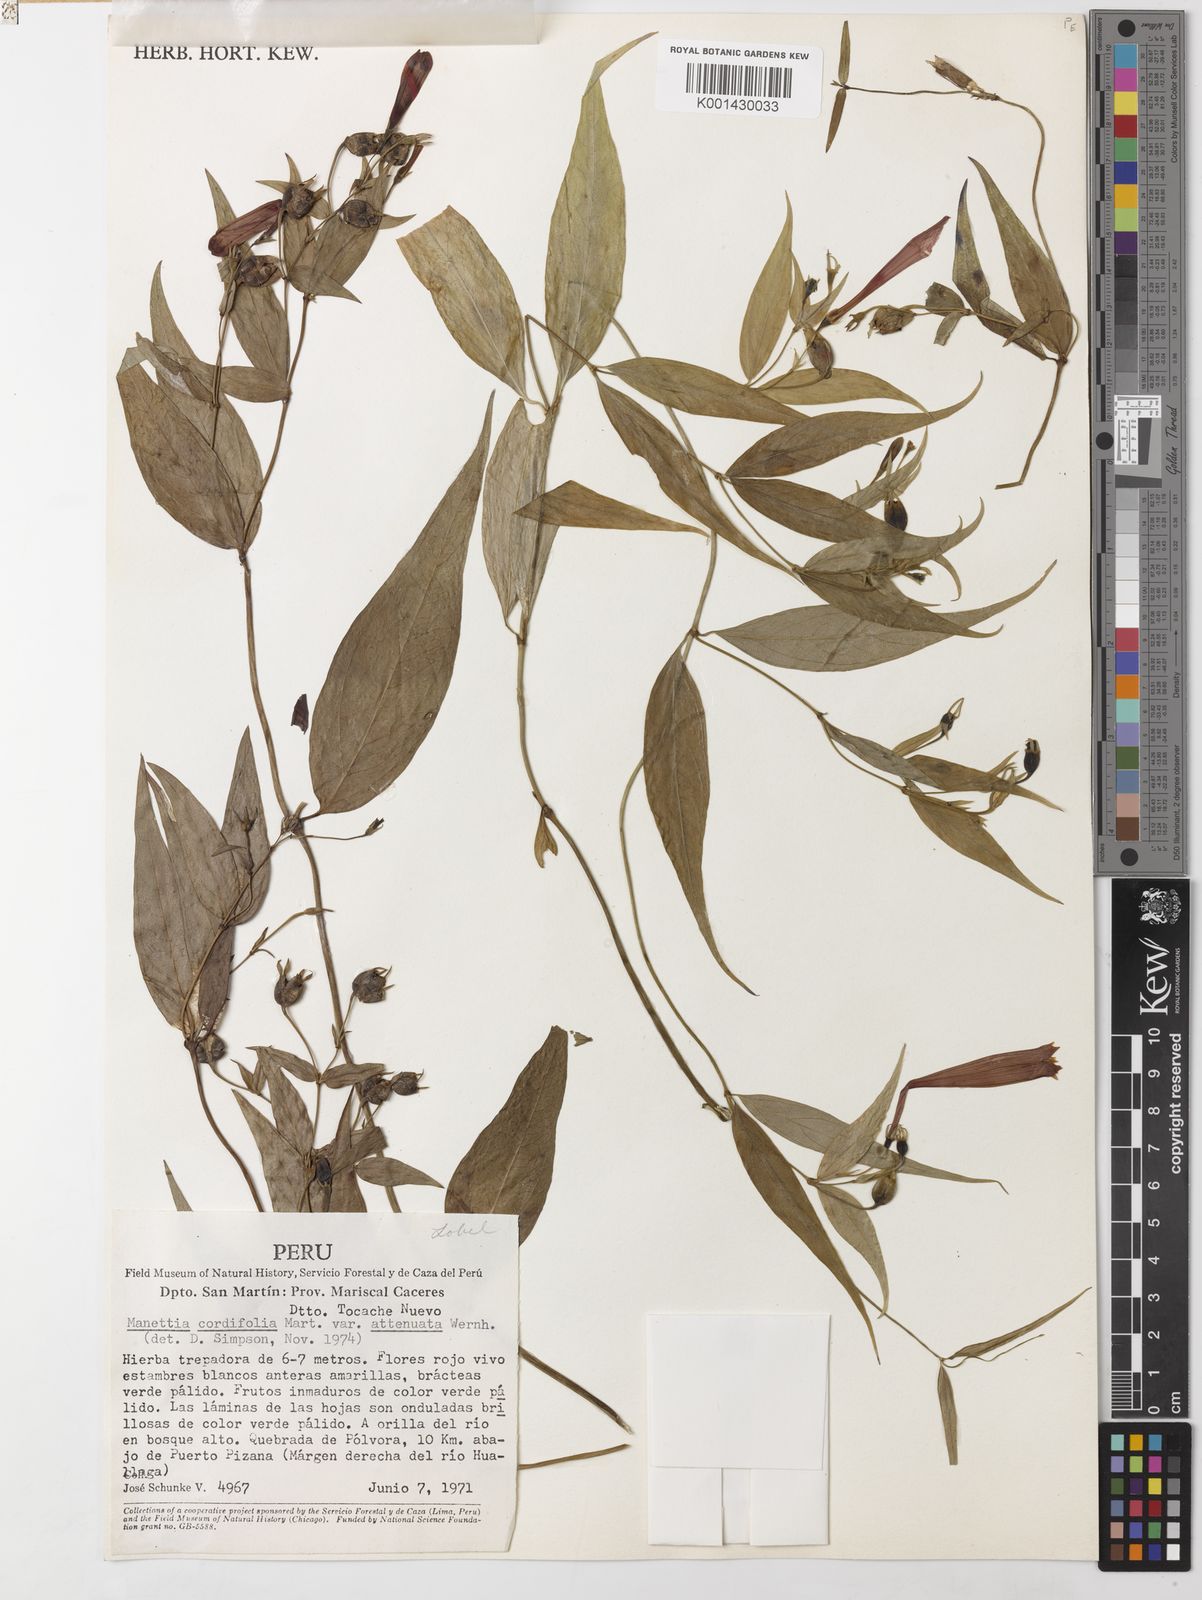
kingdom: Plantae
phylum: Tracheophyta
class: Magnoliopsida
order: Gentianales
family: Rubiaceae
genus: Manettia
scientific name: Manettia cordifolia
